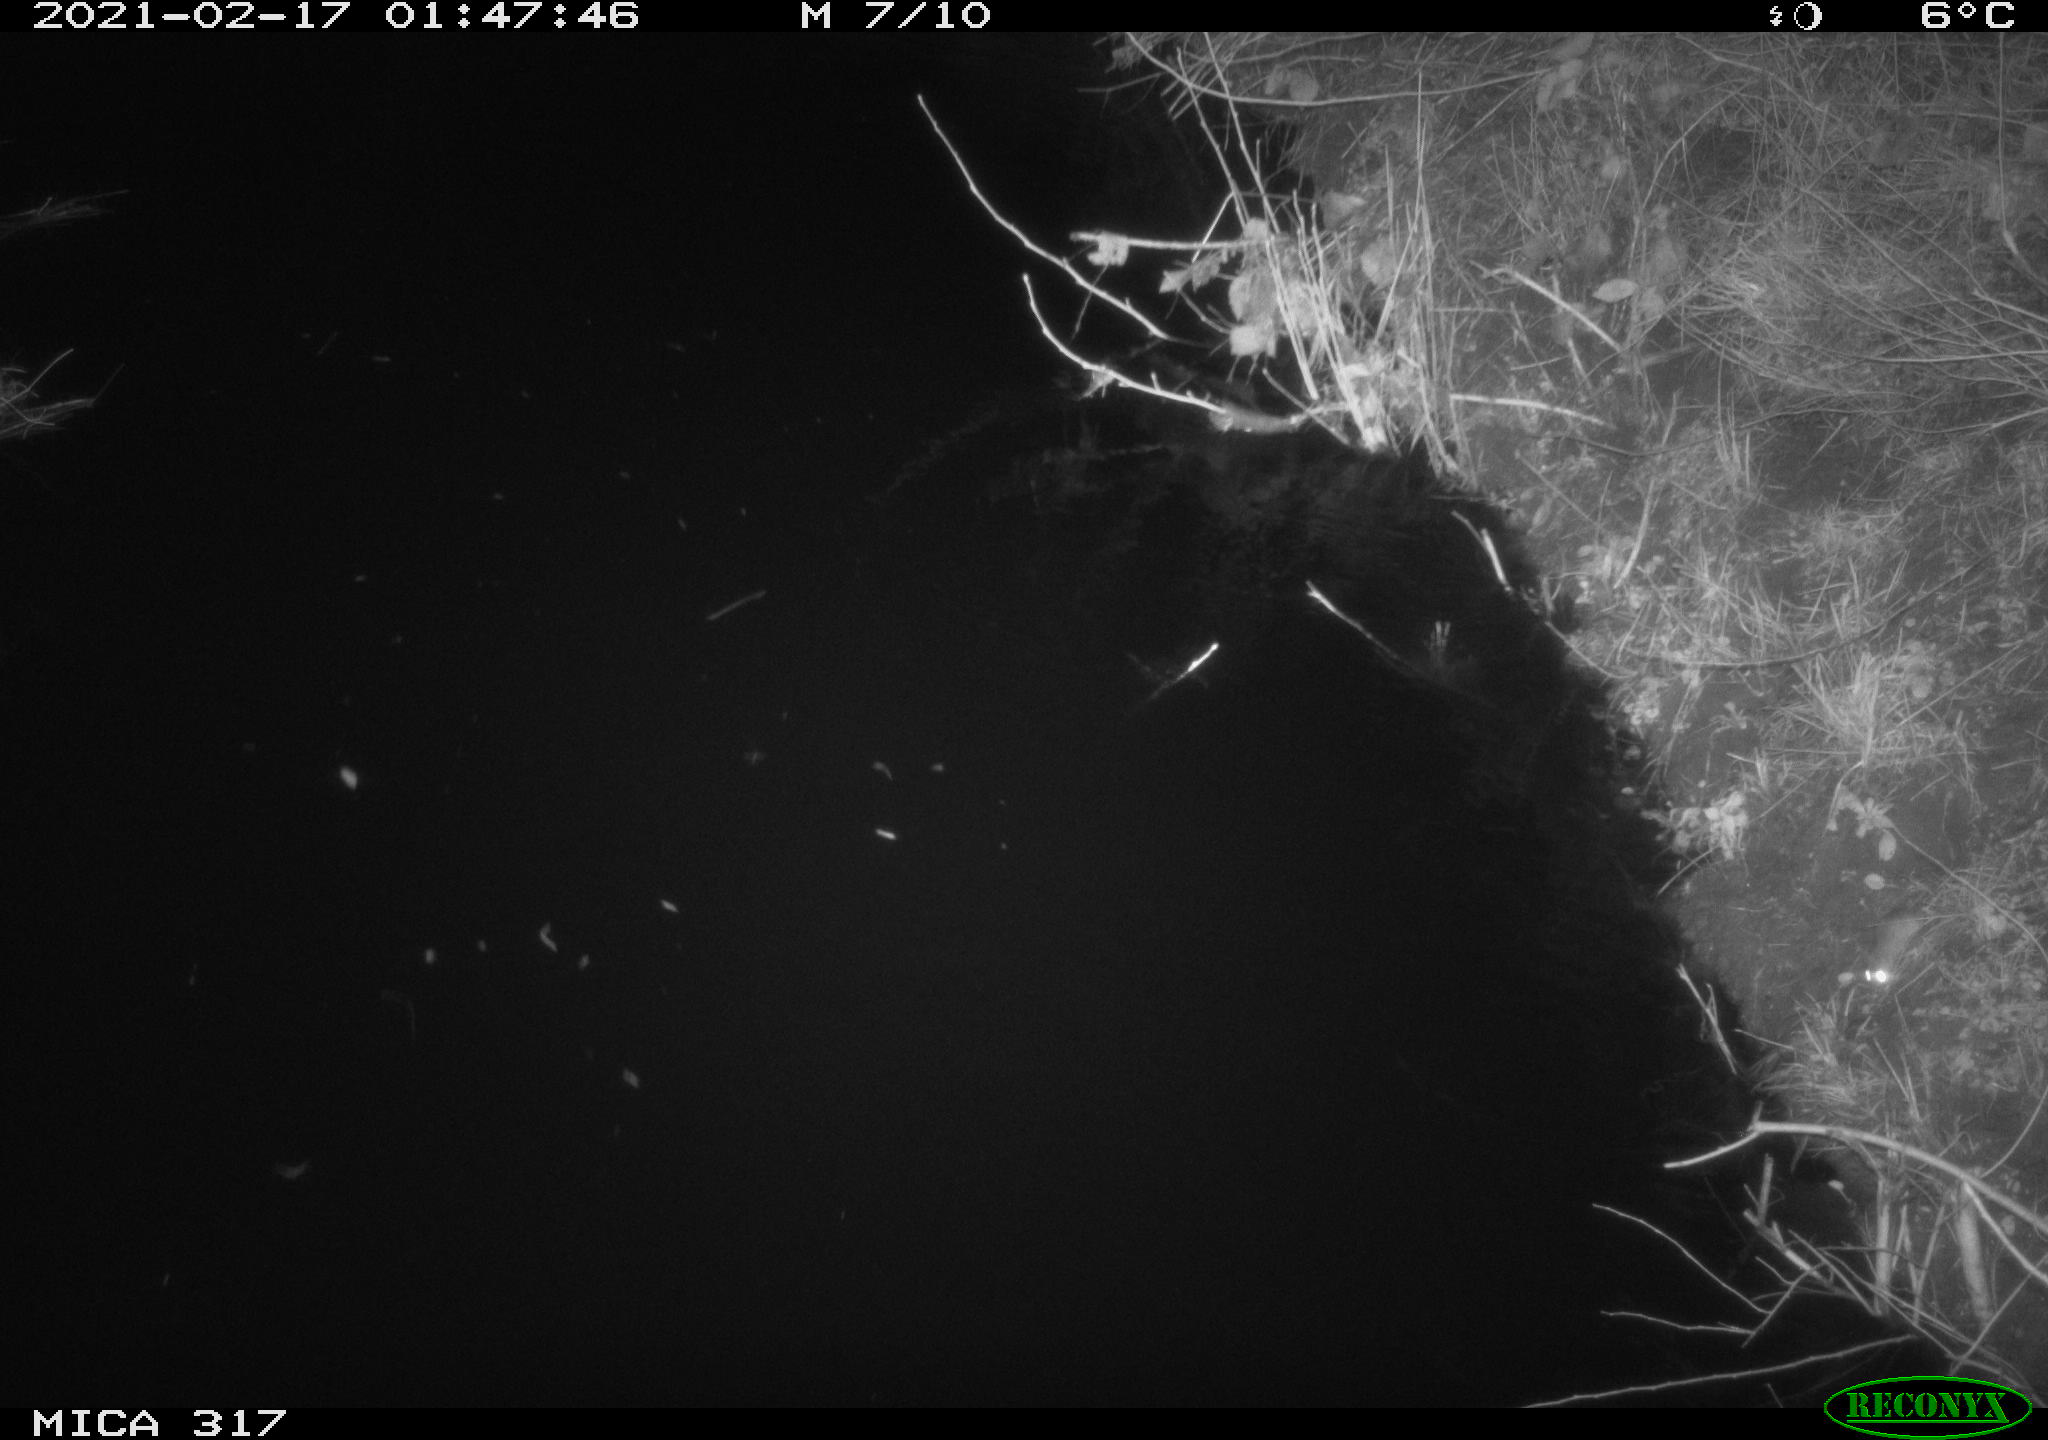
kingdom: Animalia
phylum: Chordata
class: Mammalia
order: Rodentia
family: Muridae
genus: Rattus
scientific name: Rattus norvegicus
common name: Brown rat
